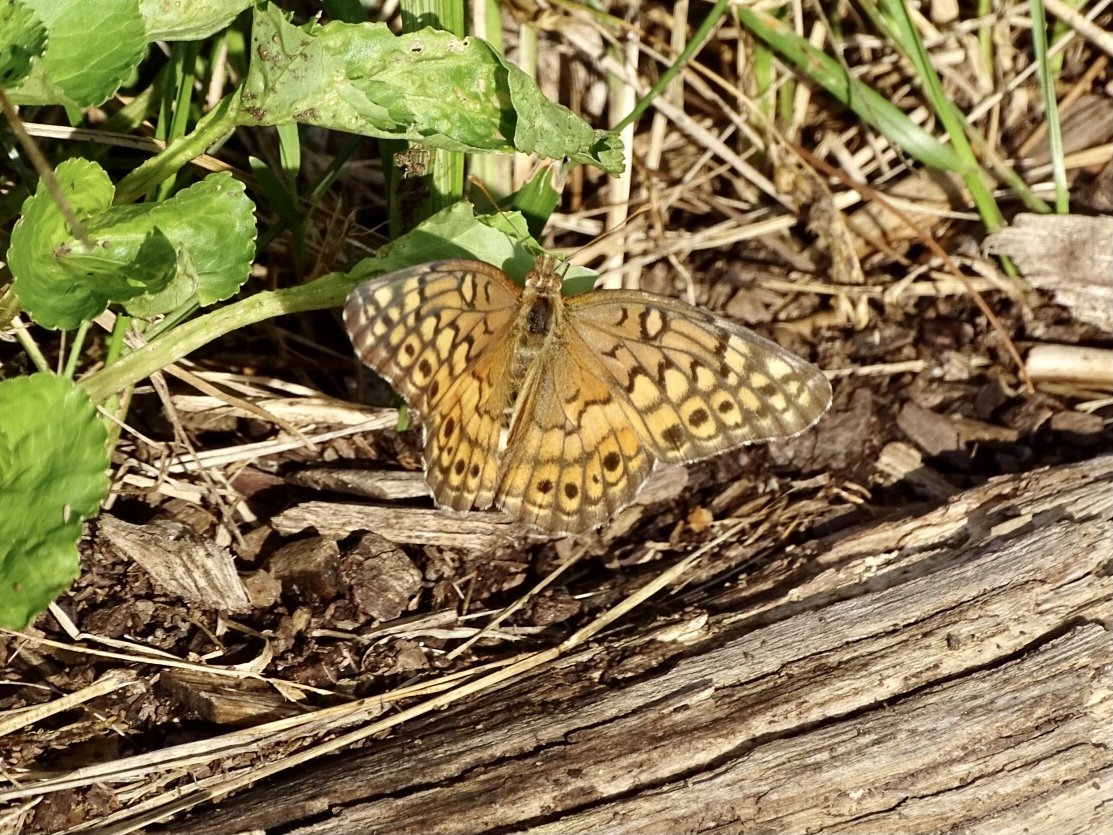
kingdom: Animalia
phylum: Arthropoda
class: Insecta
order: Lepidoptera
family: Nymphalidae
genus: Euptoieta
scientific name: Euptoieta claudia
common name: Variegated Fritillary
